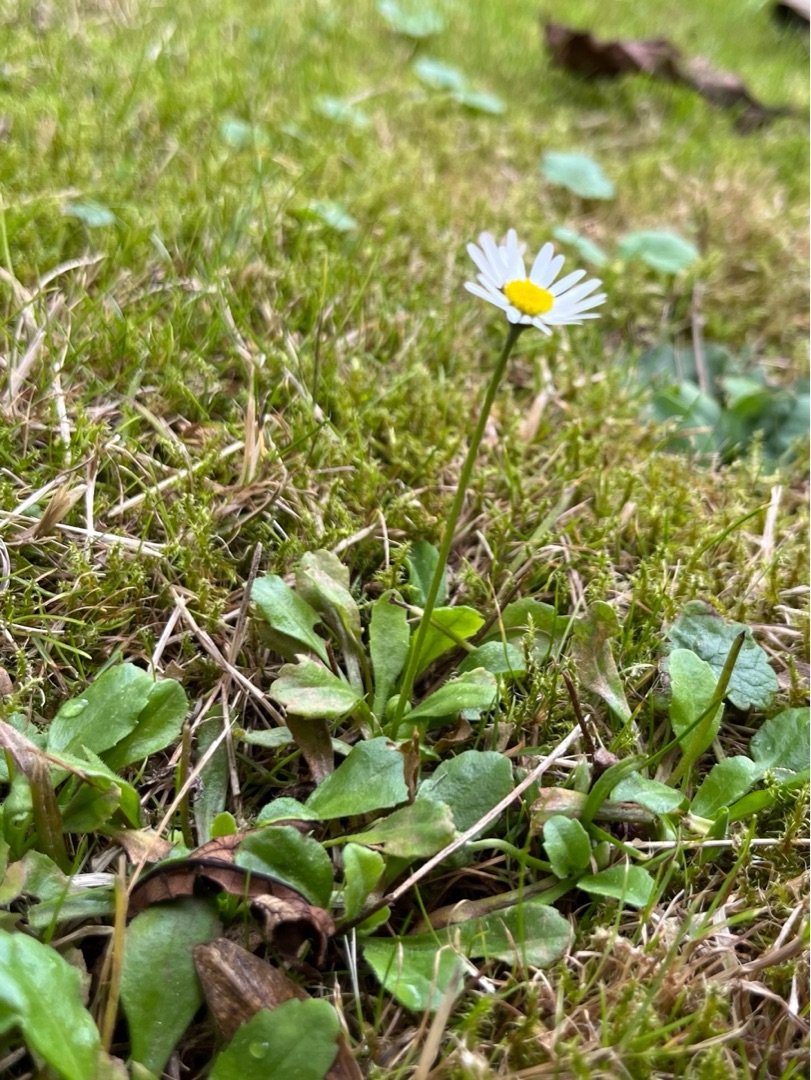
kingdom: Plantae
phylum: Tracheophyta
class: Magnoliopsida
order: Asterales
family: Asteraceae
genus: Bellis
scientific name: Bellis perennis
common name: Tusindfryd
